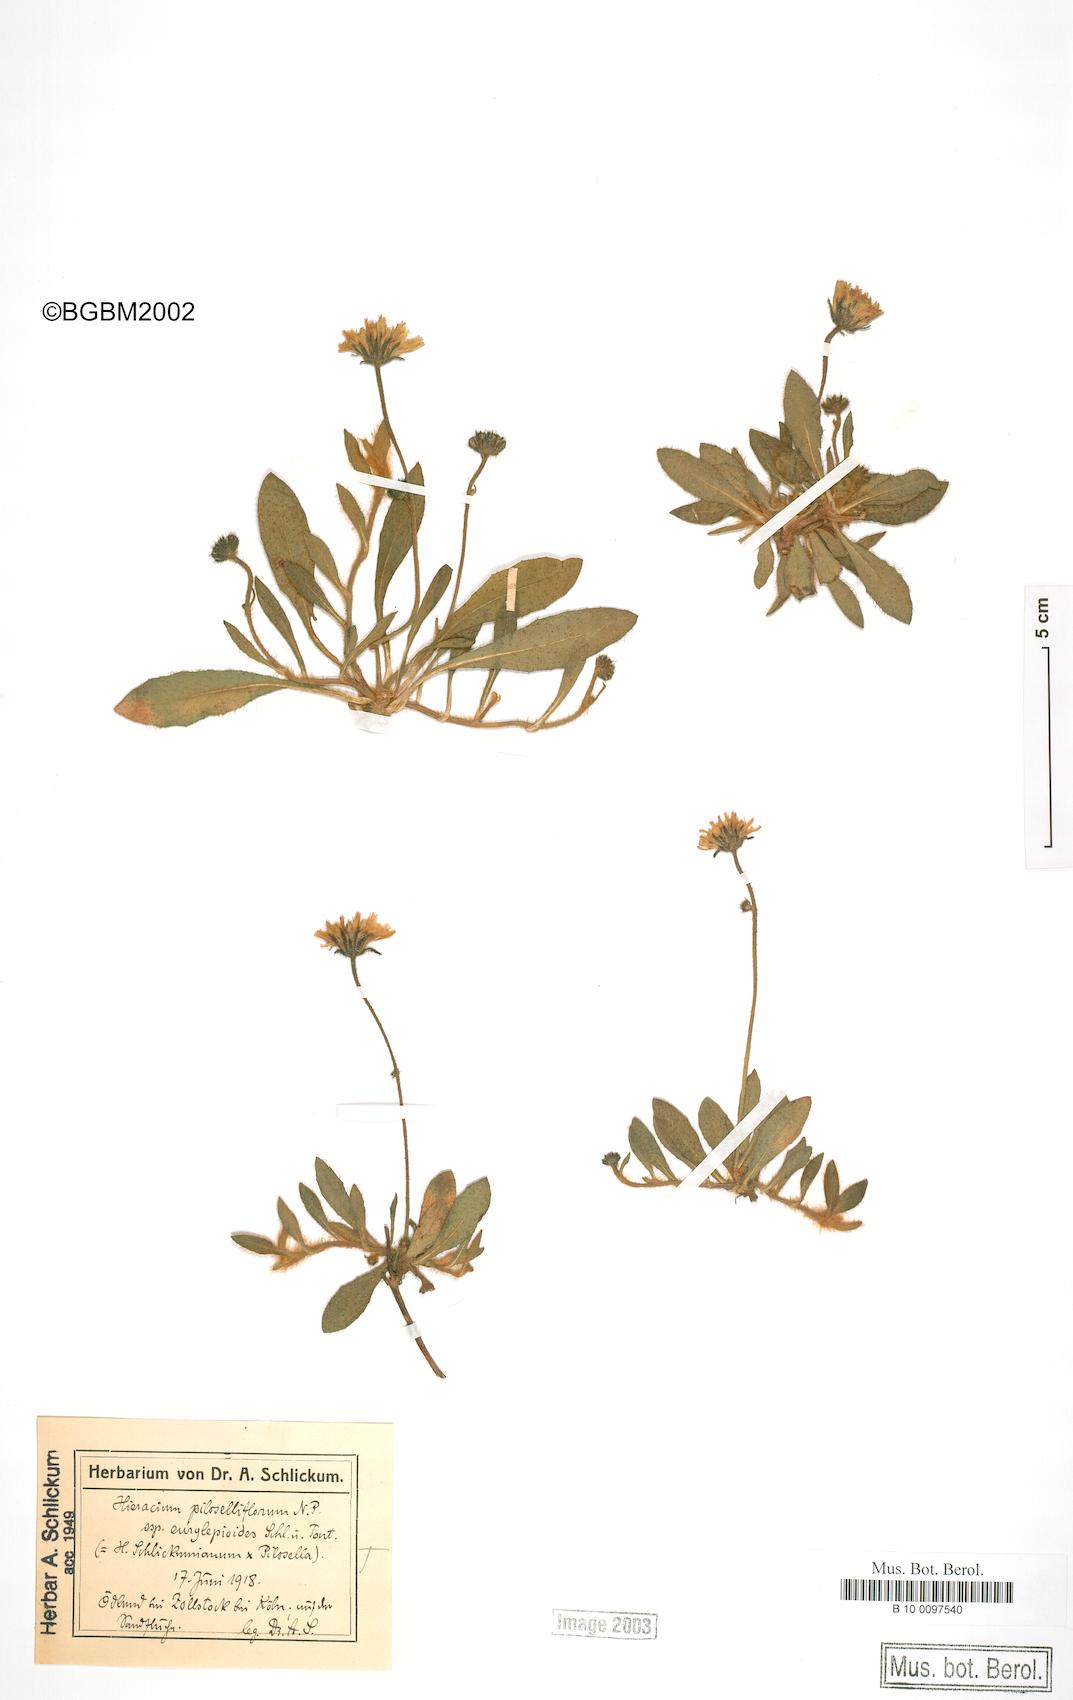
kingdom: Plantae
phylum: Tracheophyta
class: Magnoliopsida
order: Asterales
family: Asteraceae
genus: Pilosella
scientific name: Pilosella piloselliflora
